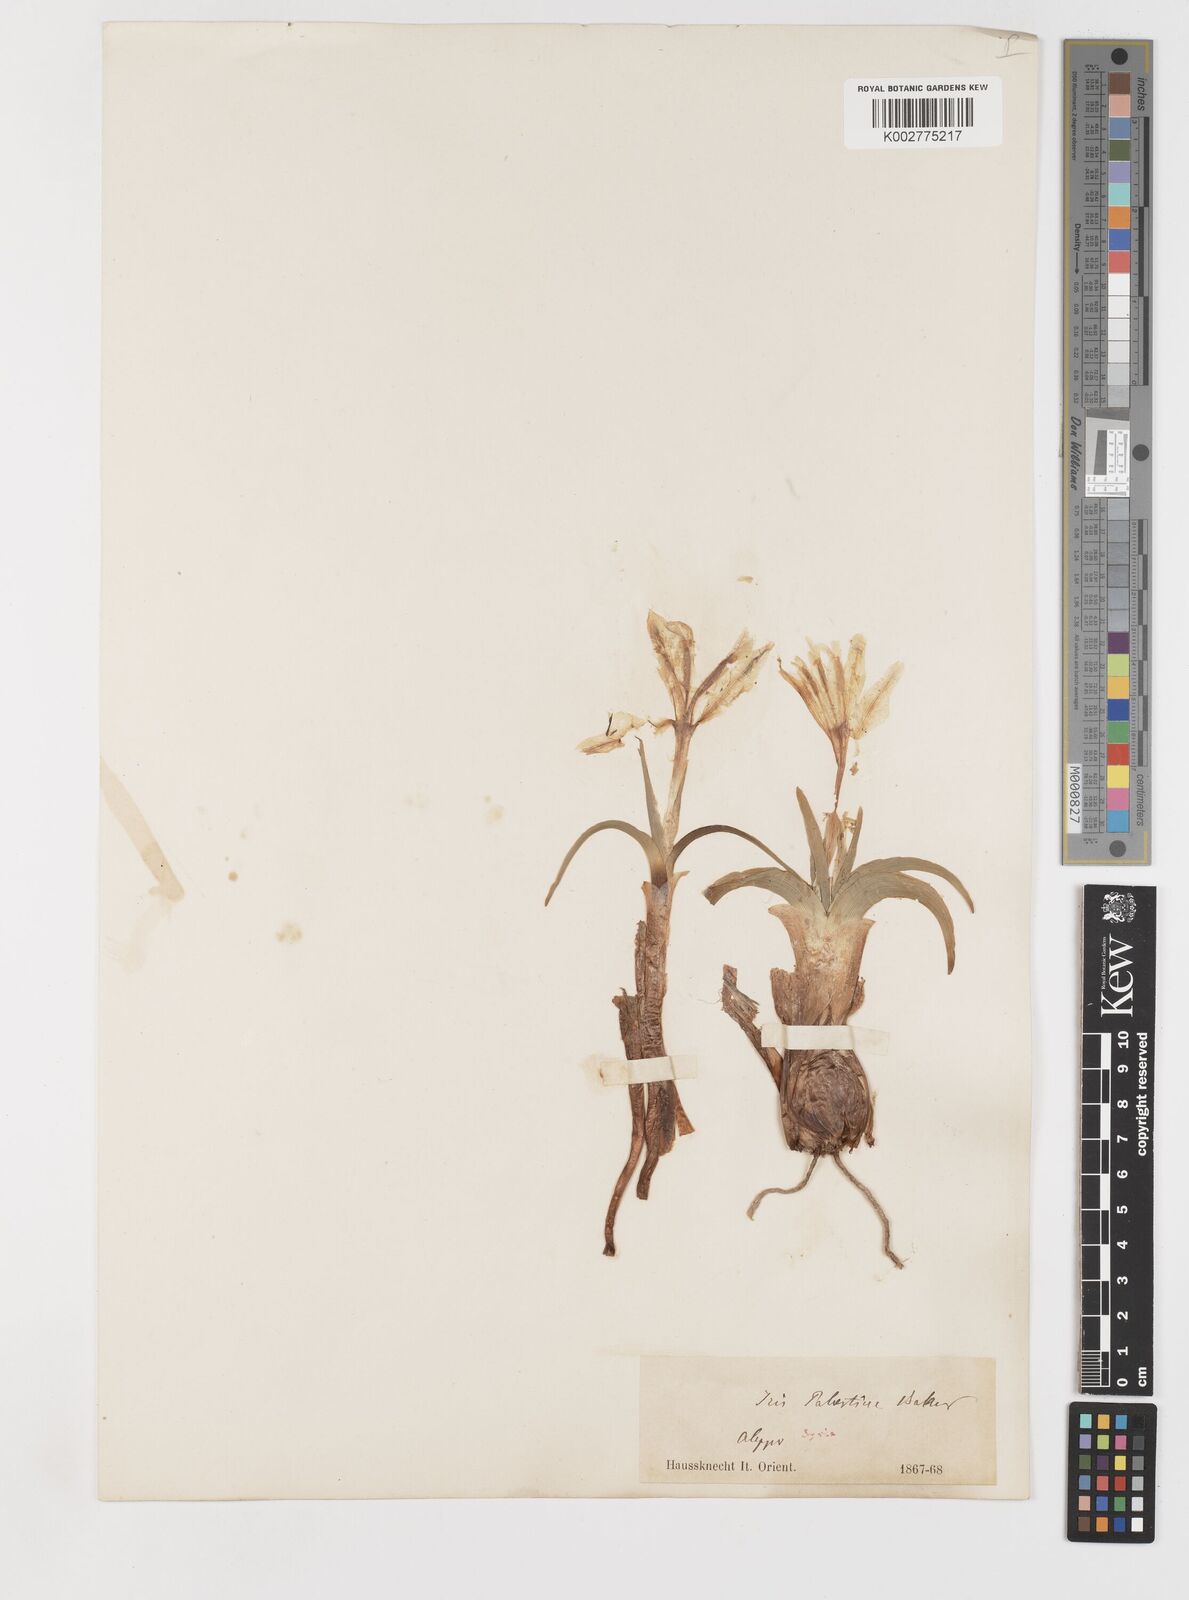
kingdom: Plantae
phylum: Tracheophyta
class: Liliopsida
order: Asparagales
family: Iridaceae
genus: Iris
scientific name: Iris persica
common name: Persian iris
